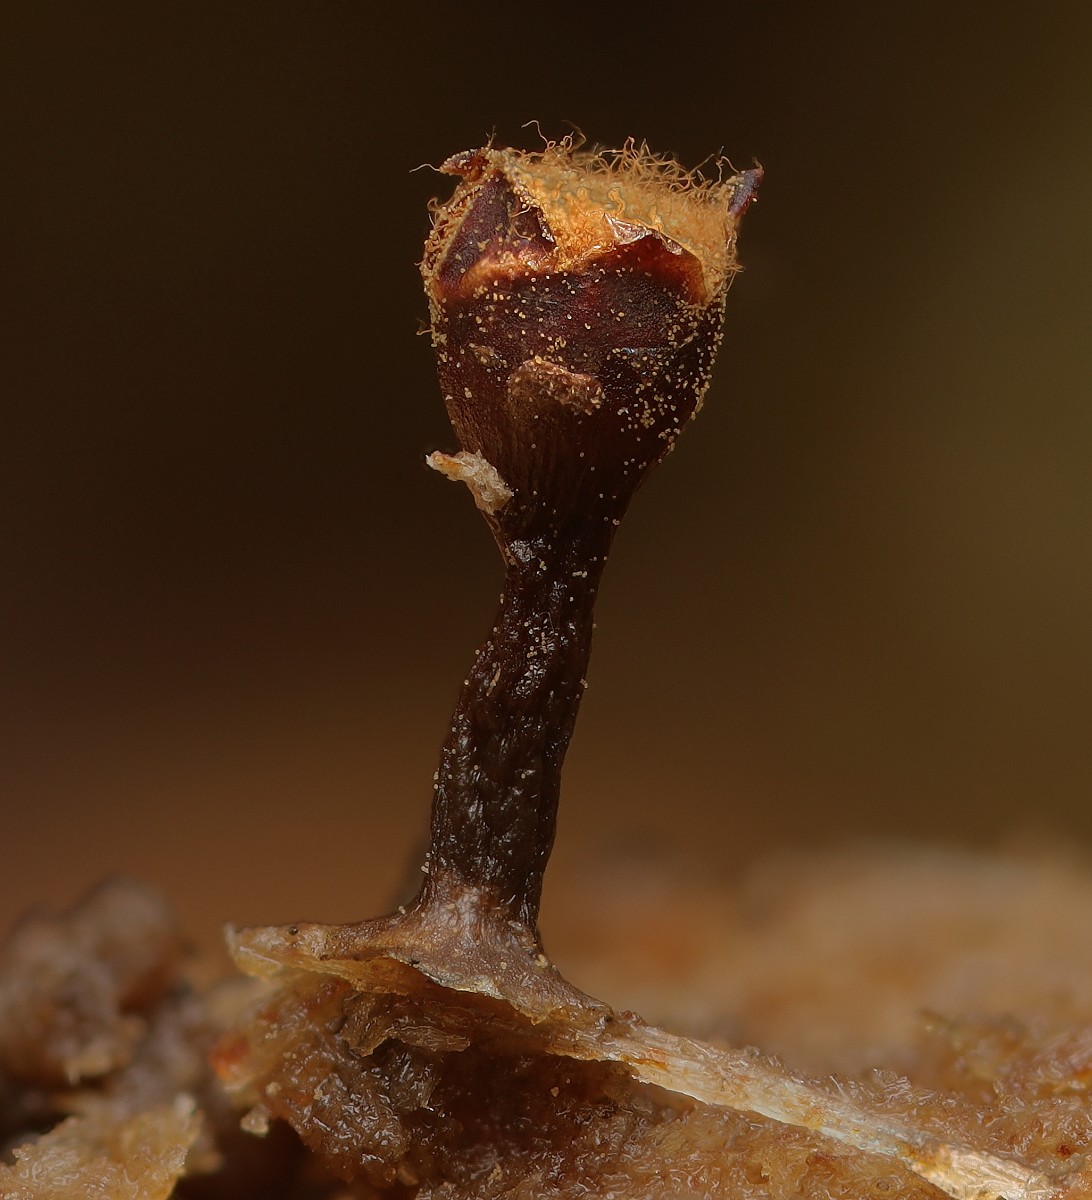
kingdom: Protozoa
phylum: Mycetozoa
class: Myxomycetes
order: Trichiales
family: Trichiaceae
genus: Trichia
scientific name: Trichia botrytis
